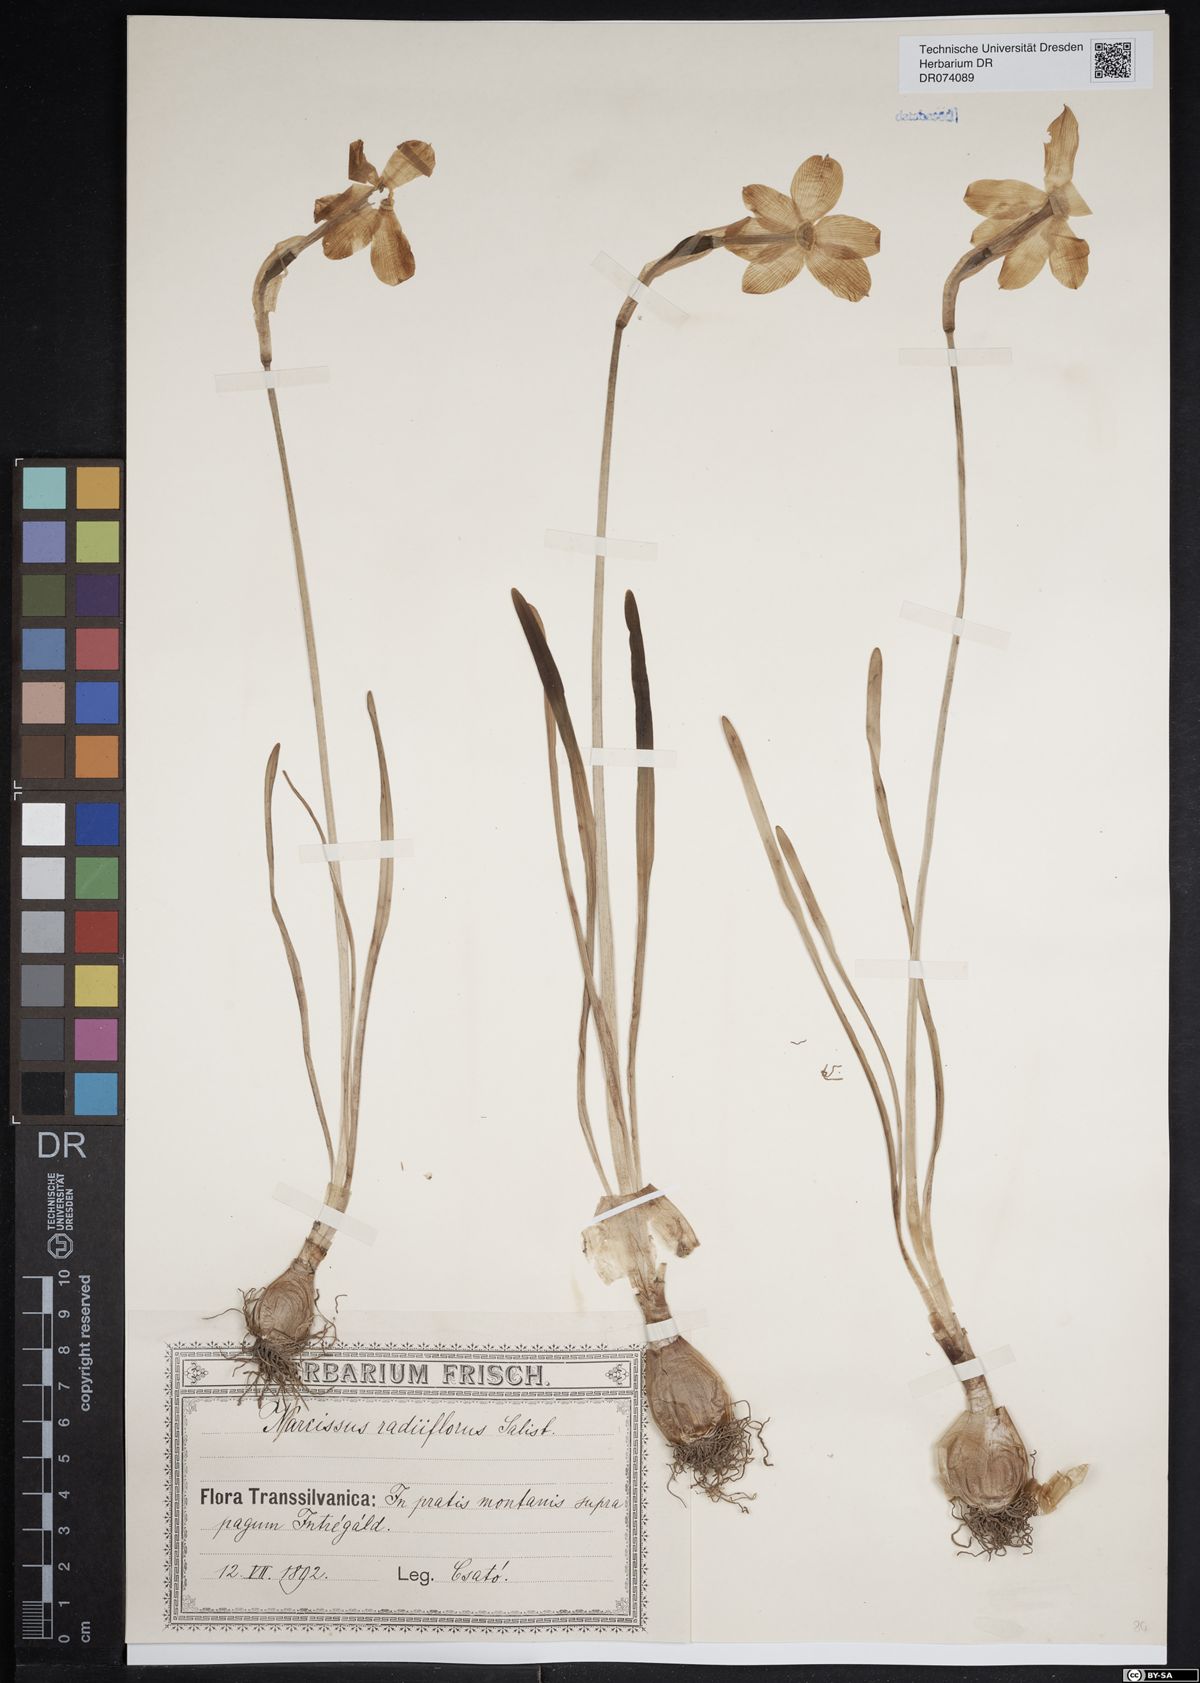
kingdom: Plantae
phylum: Tracheophyta
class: Liliopsida
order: Asparagales
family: Amaryllidaceae
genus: Narcissus
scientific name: Narcissus poeticus
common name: Pheasant's-eye daffodil
